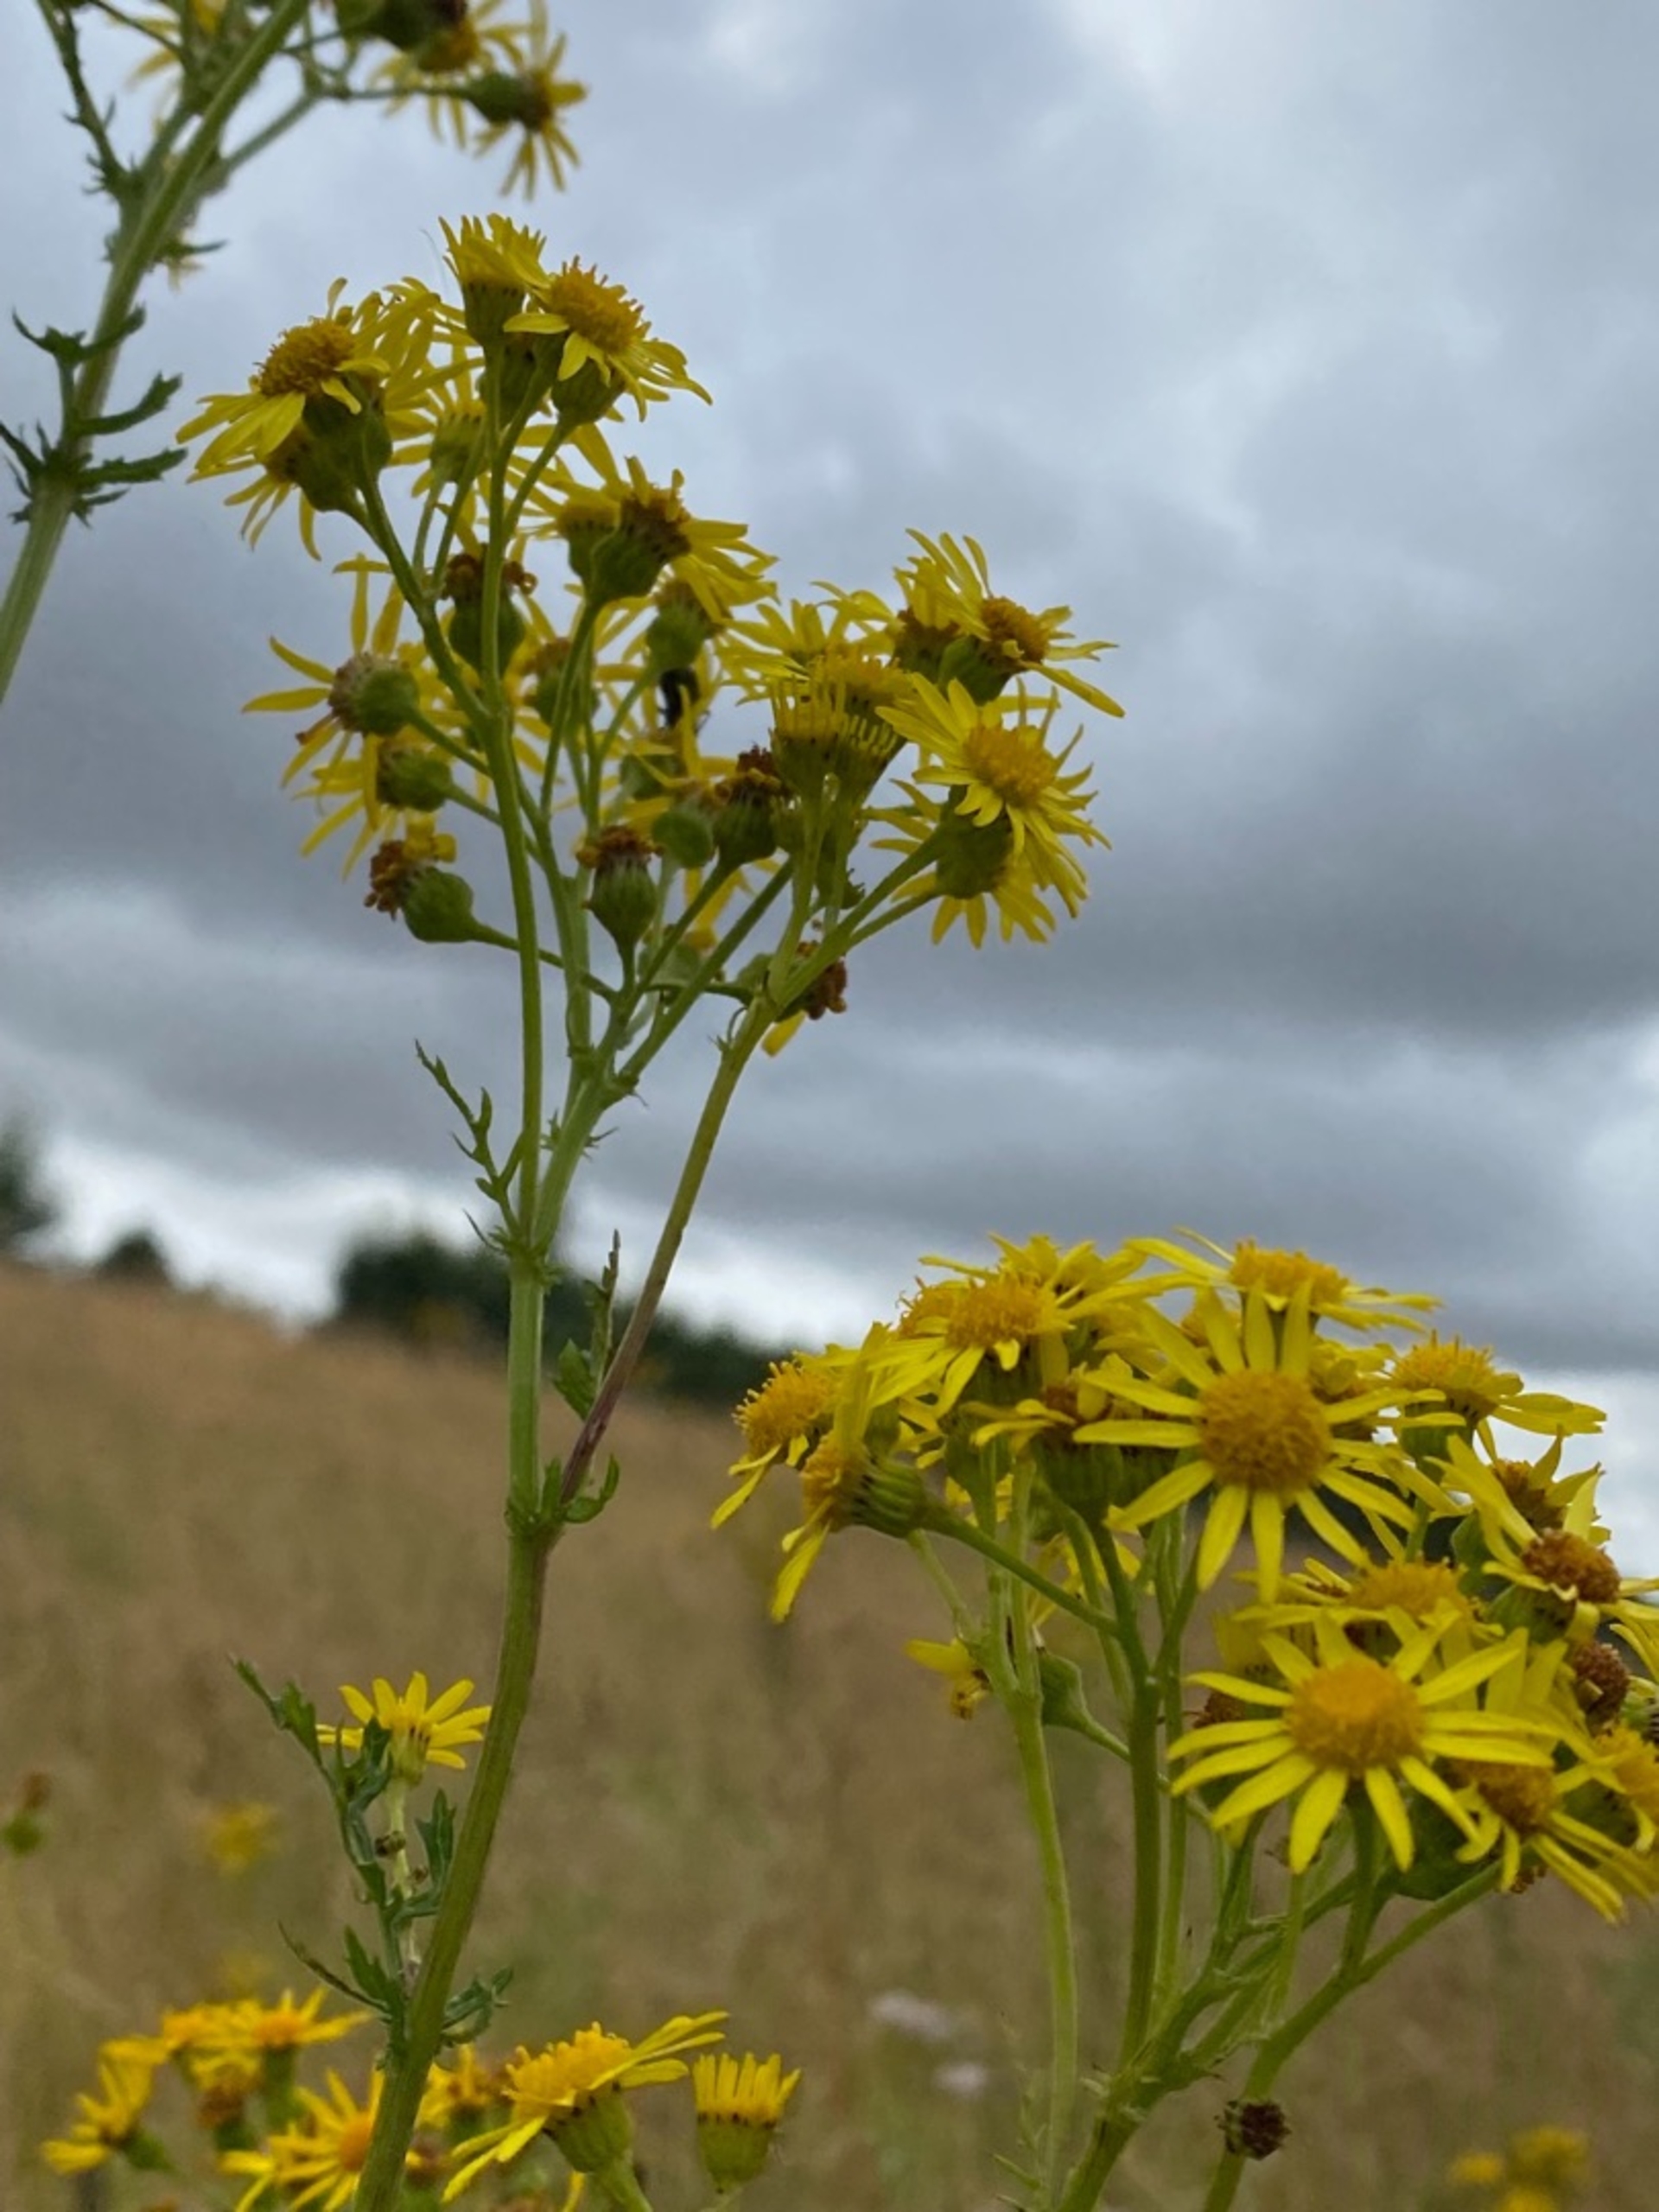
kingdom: Plantae
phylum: Tracheophyta
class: Magnoliopsida
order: Asterales
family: Asteraceae
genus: Jacobaea
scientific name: Jacobaea vulgaris
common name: Eng-brandbæger
